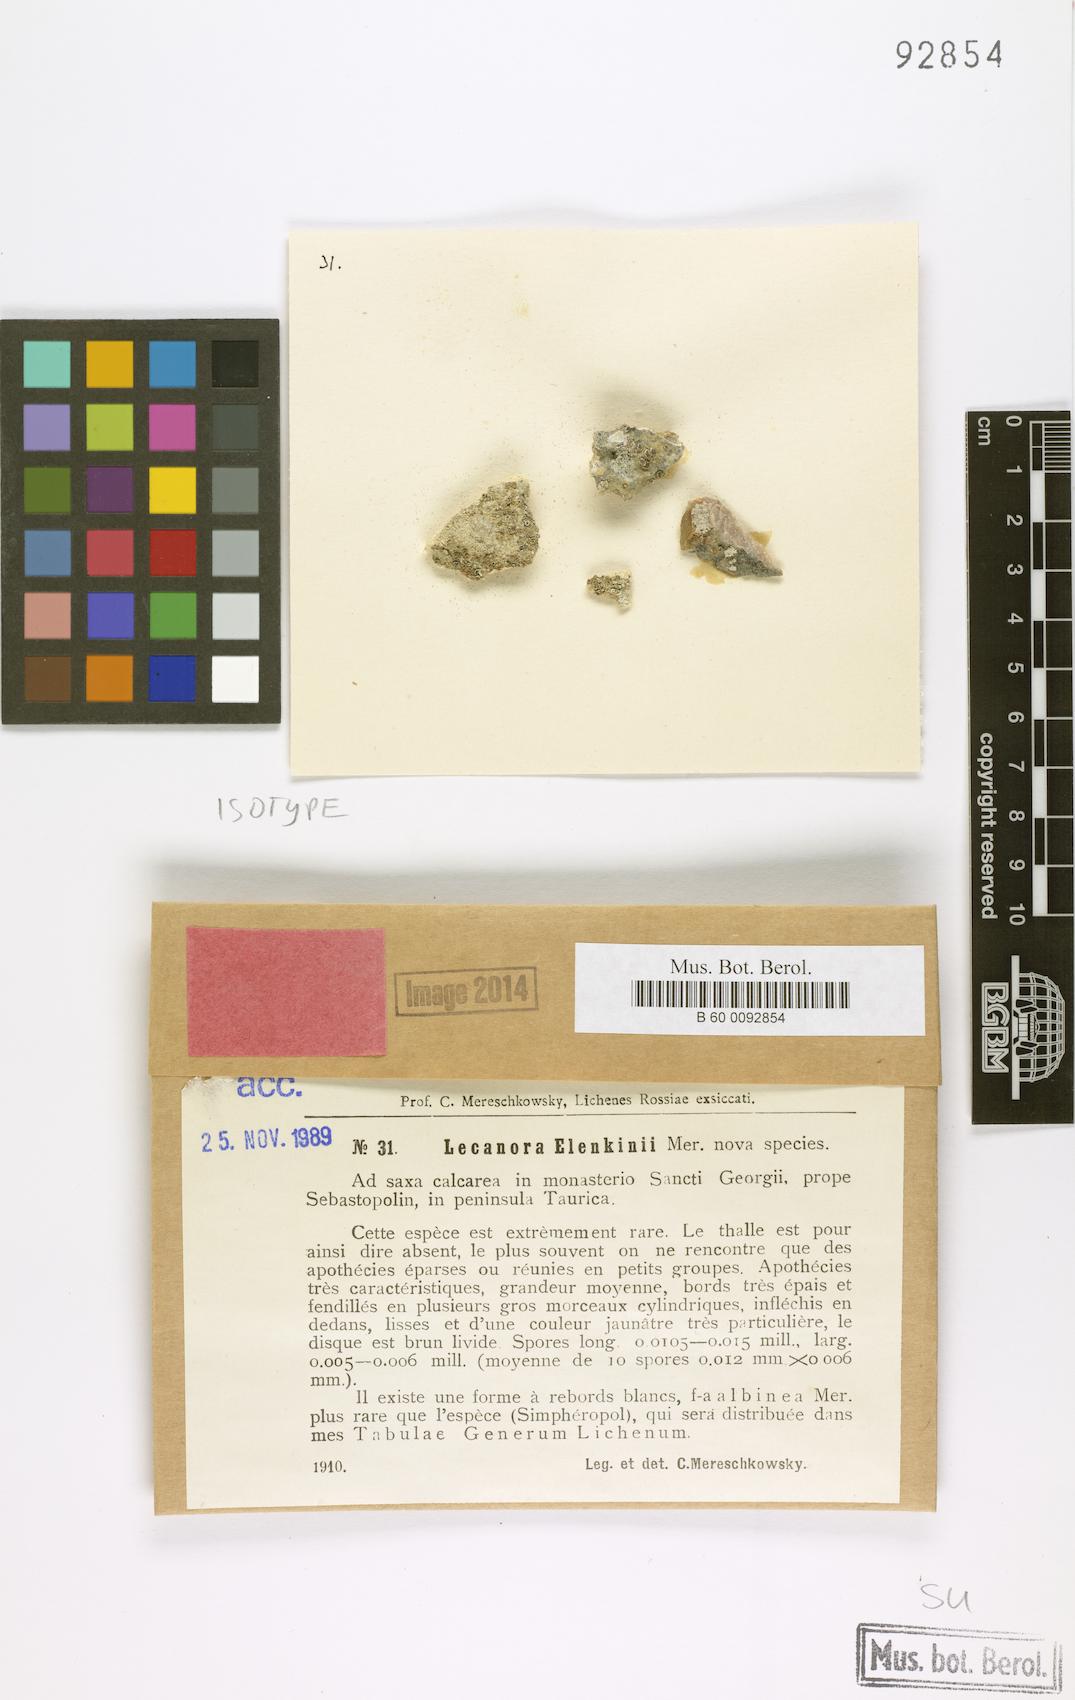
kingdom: Fungi
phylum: Ascomycota
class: Lecanoromycetes
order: Lecanorales
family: Lecanoraceae
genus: Lecanora
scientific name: Lecanora
